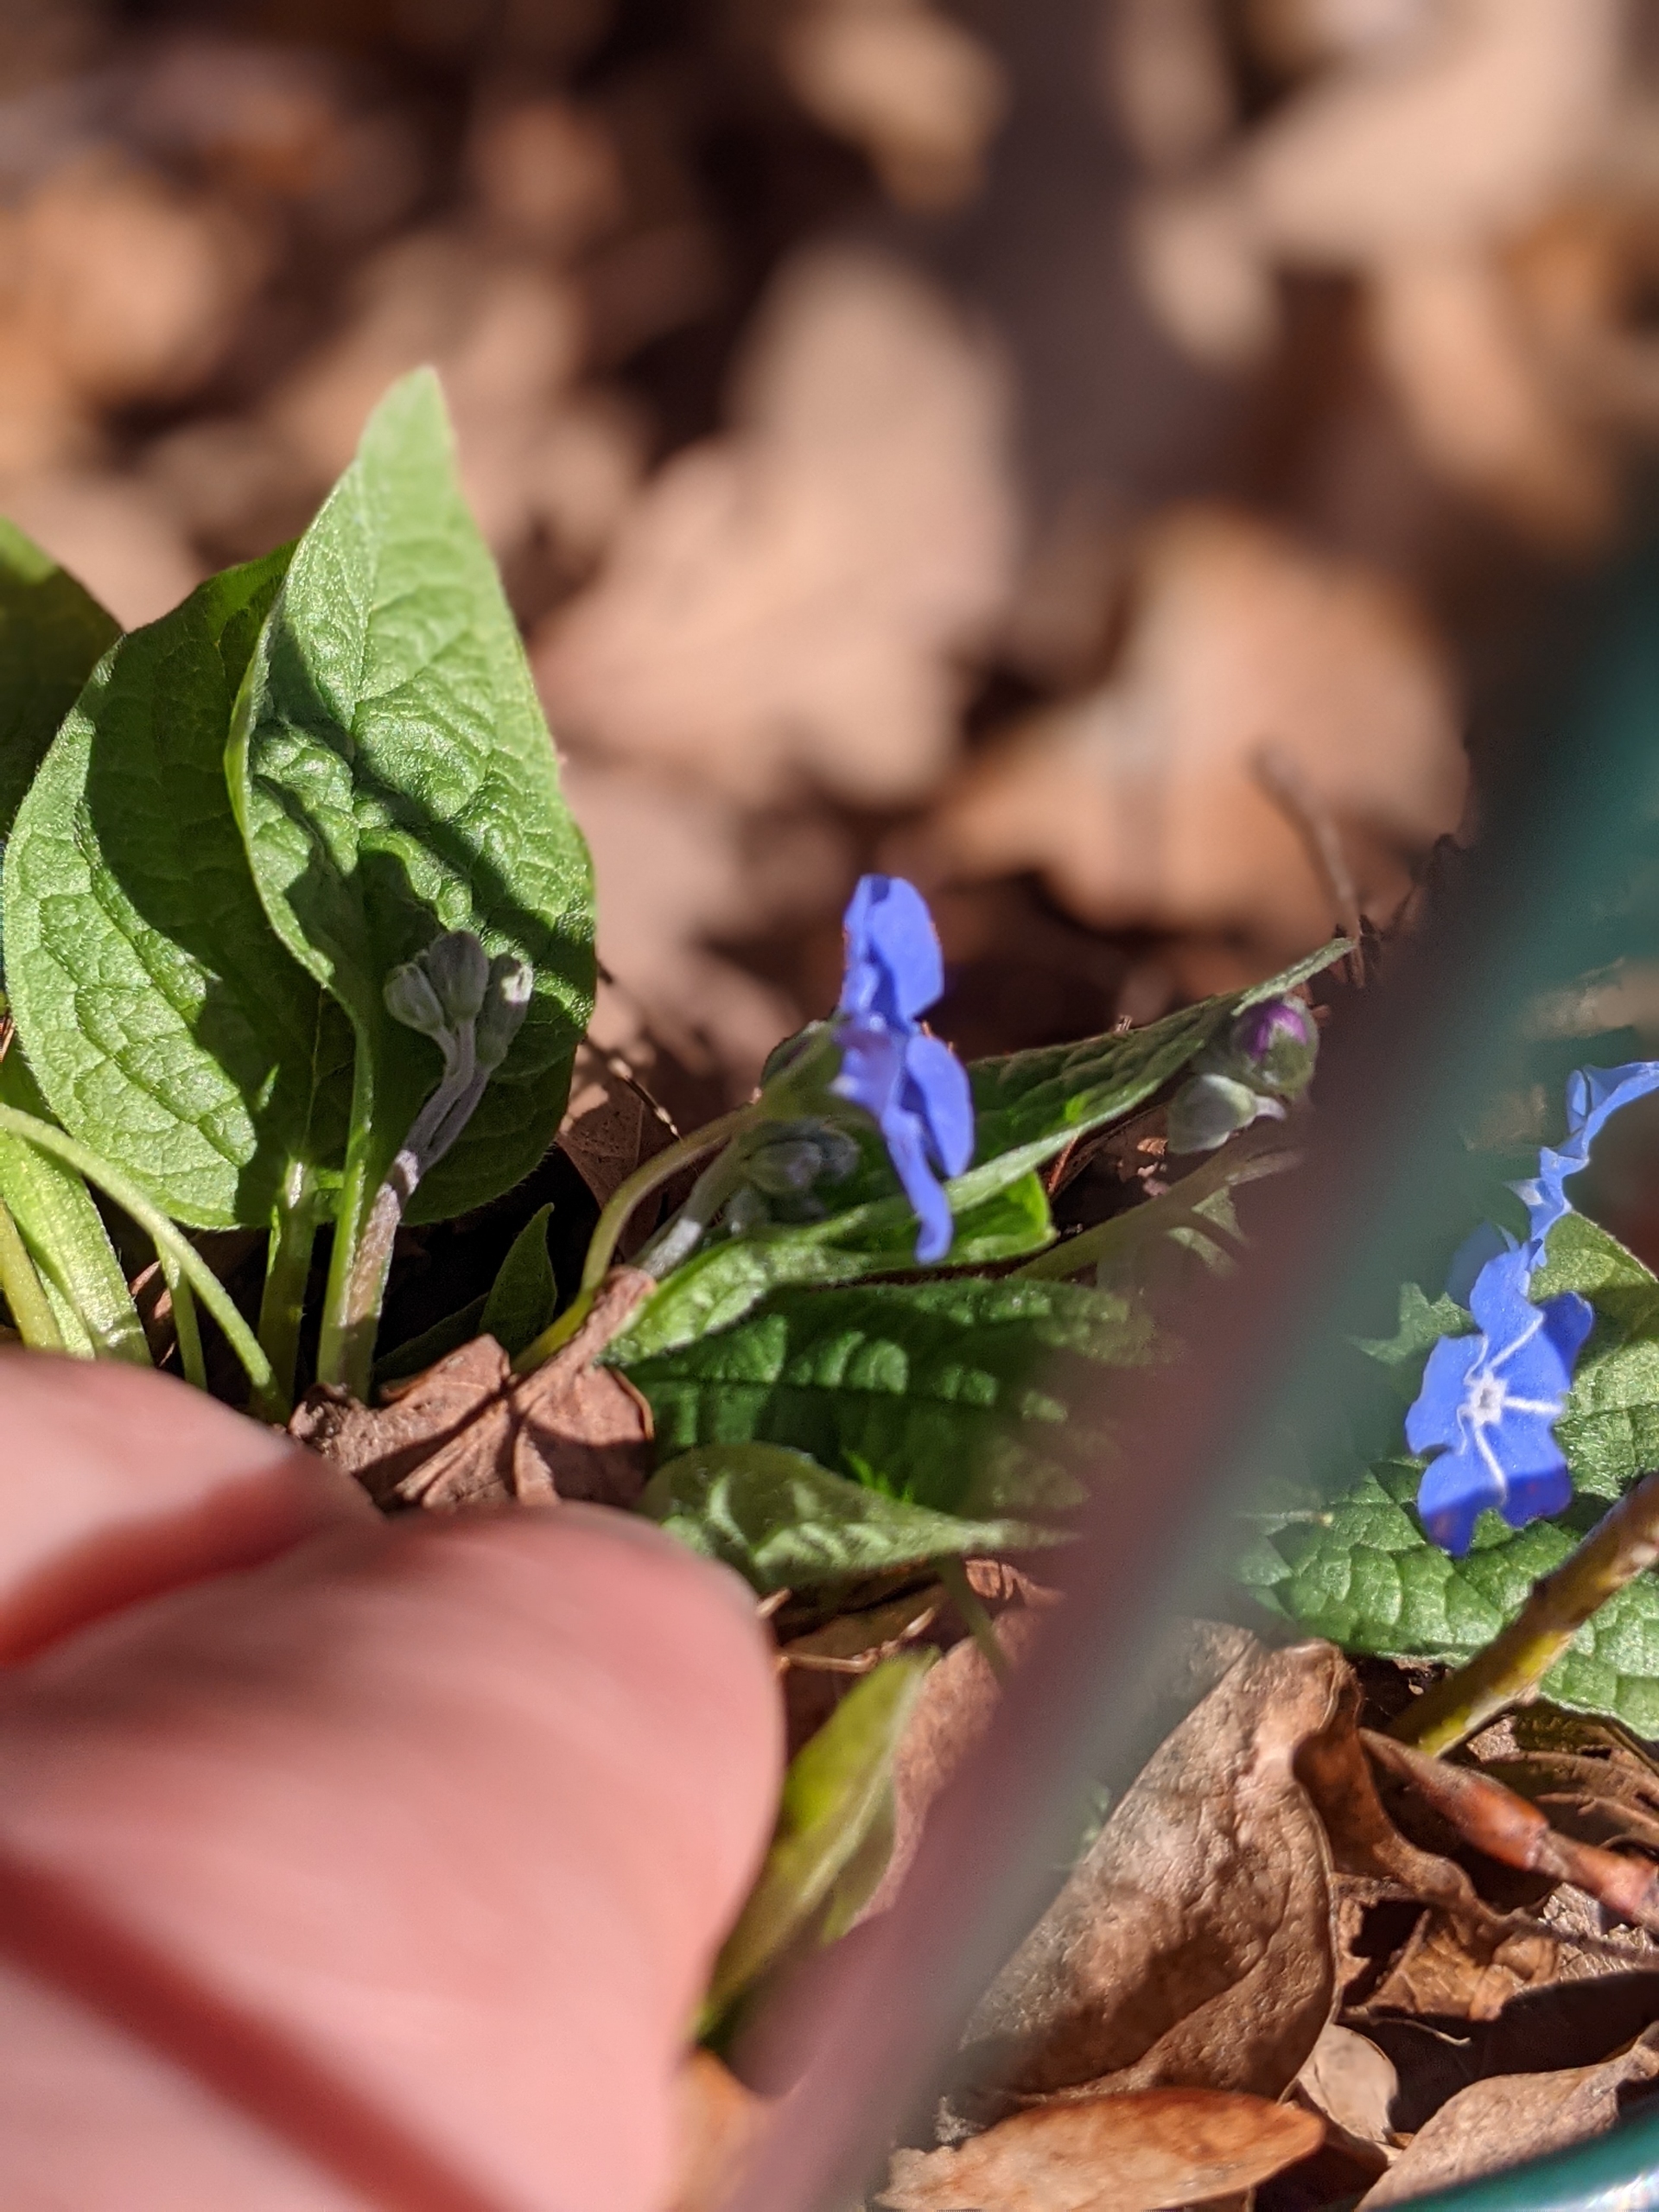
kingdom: Plantae
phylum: Tracheophyta
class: Magnoliopsida
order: Boraginales
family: Boraginaceae
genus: Omphalodes
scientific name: Omphalodes verna
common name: Vår-kærminde
